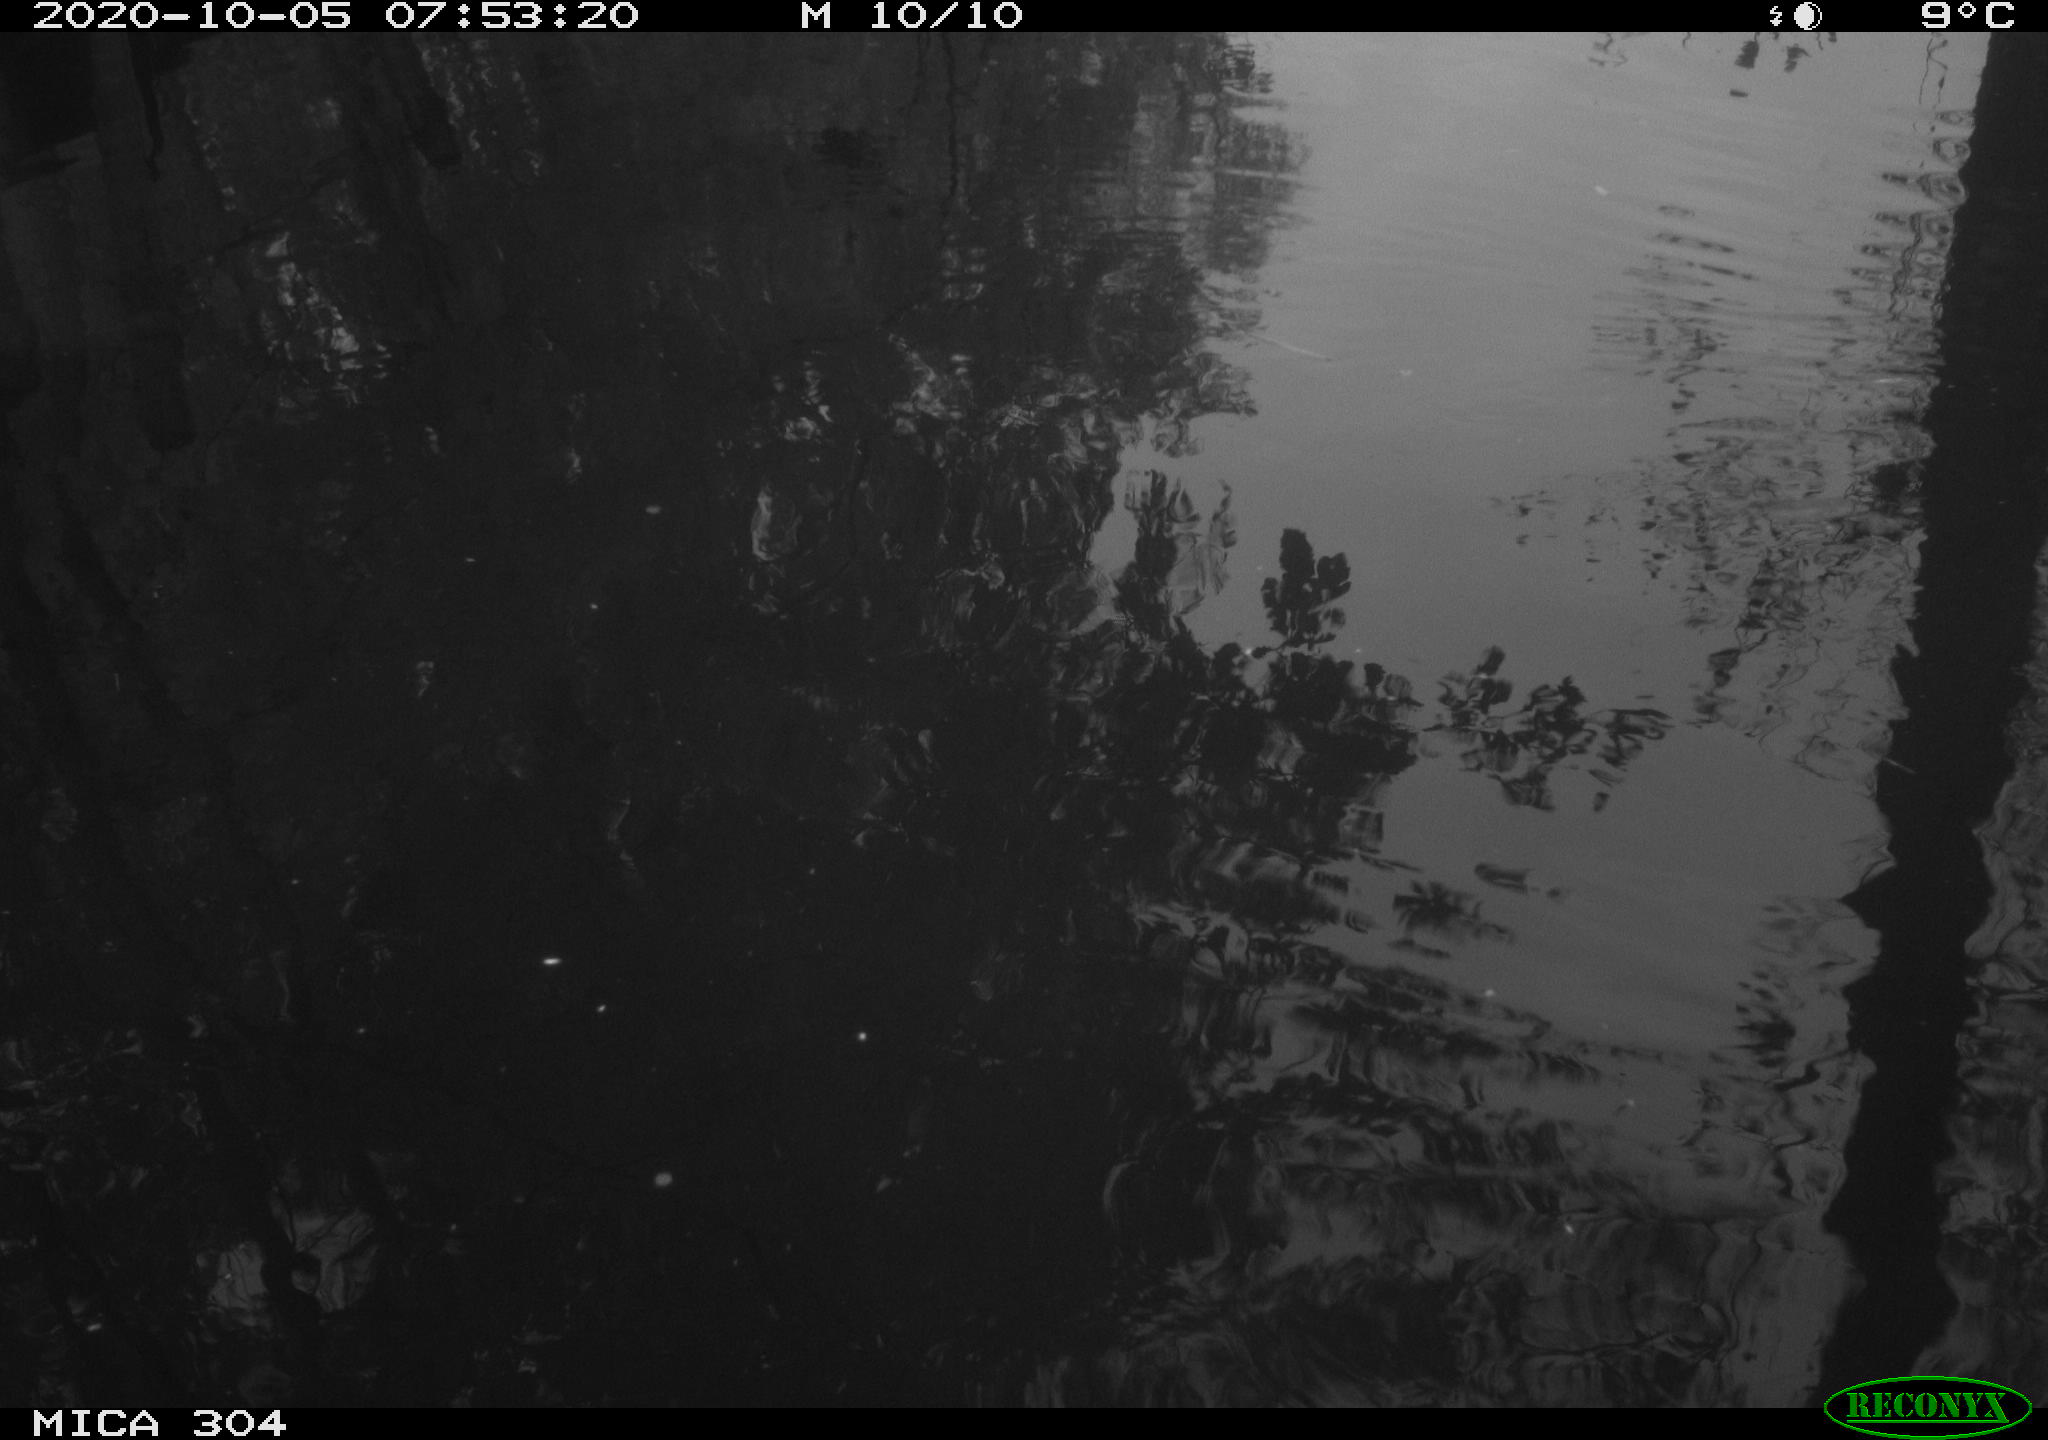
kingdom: Animalia
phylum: Chordata
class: Aves
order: Gruiformes
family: Rallidae
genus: Gallinula
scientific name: Gallinula chloropus
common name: Common moorhen
